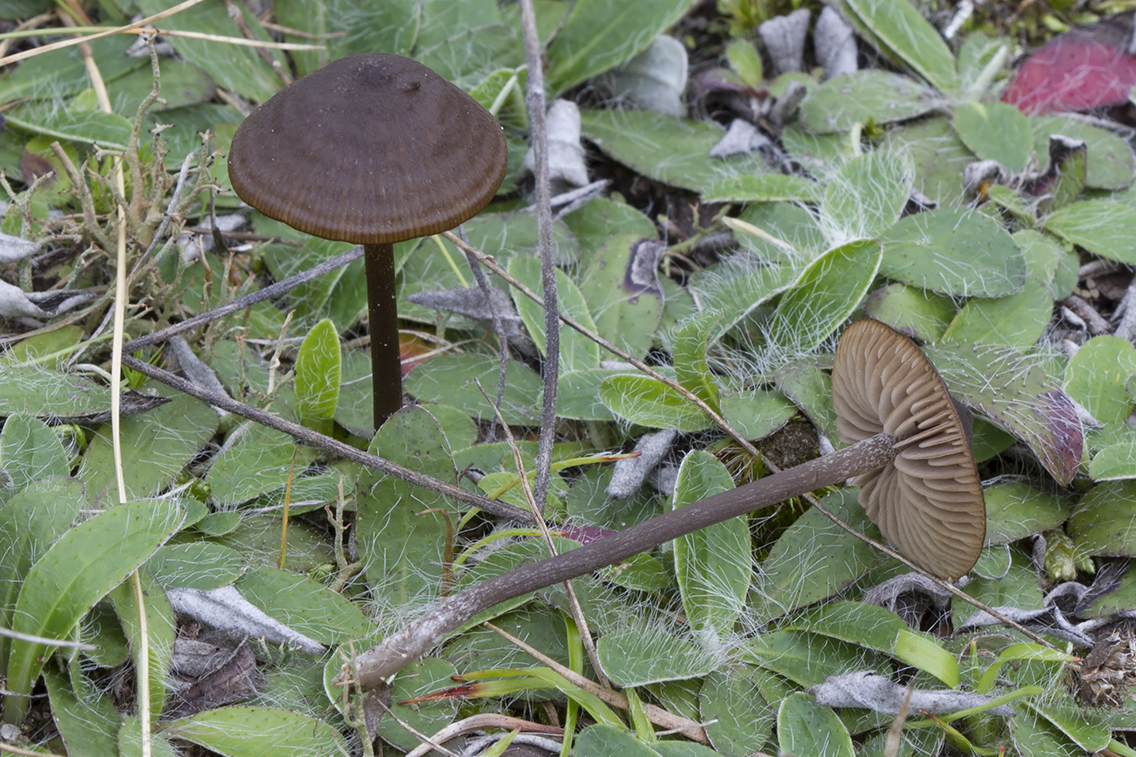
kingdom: Fungi
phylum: Basidiomycota
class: Agaricomycetes
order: Agaricales
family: Entolomataceae
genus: Entoloma
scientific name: Entoloma clandestinum
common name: tykbladet rødblad
